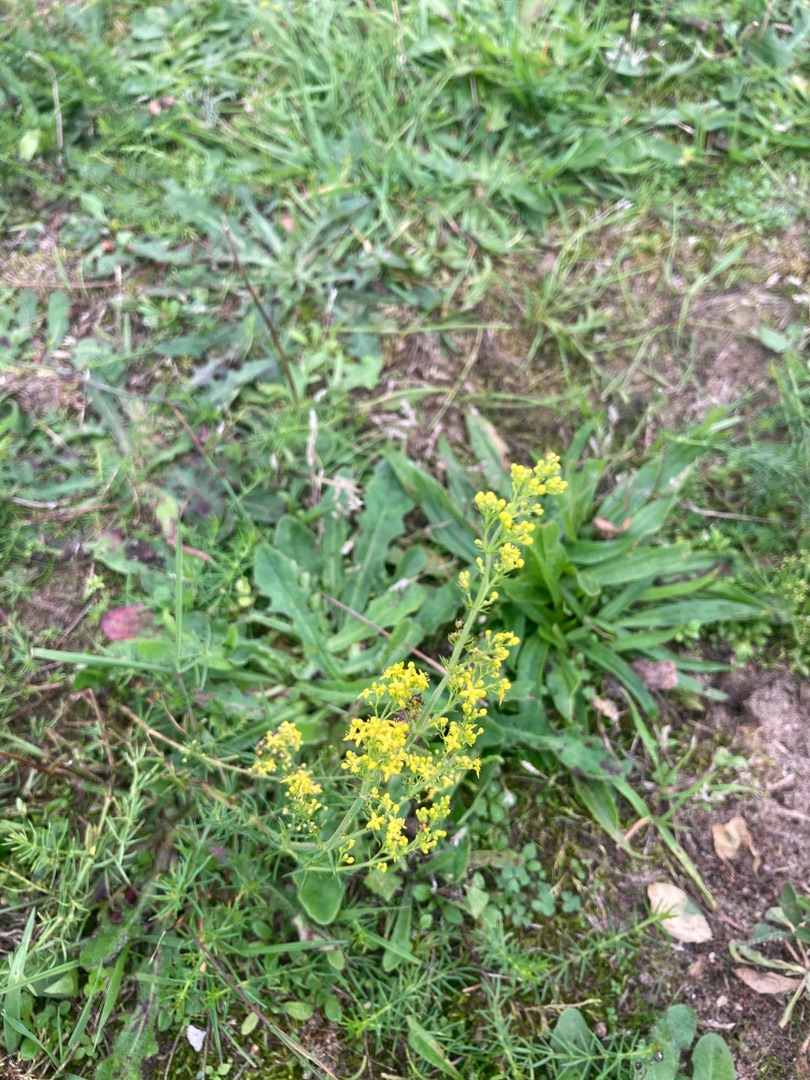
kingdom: Plantae
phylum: Tracheophyta
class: Magnoliopsida
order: Gentianales
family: Rubiaceae
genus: Galium
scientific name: Galium verum
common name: Gul snerre
